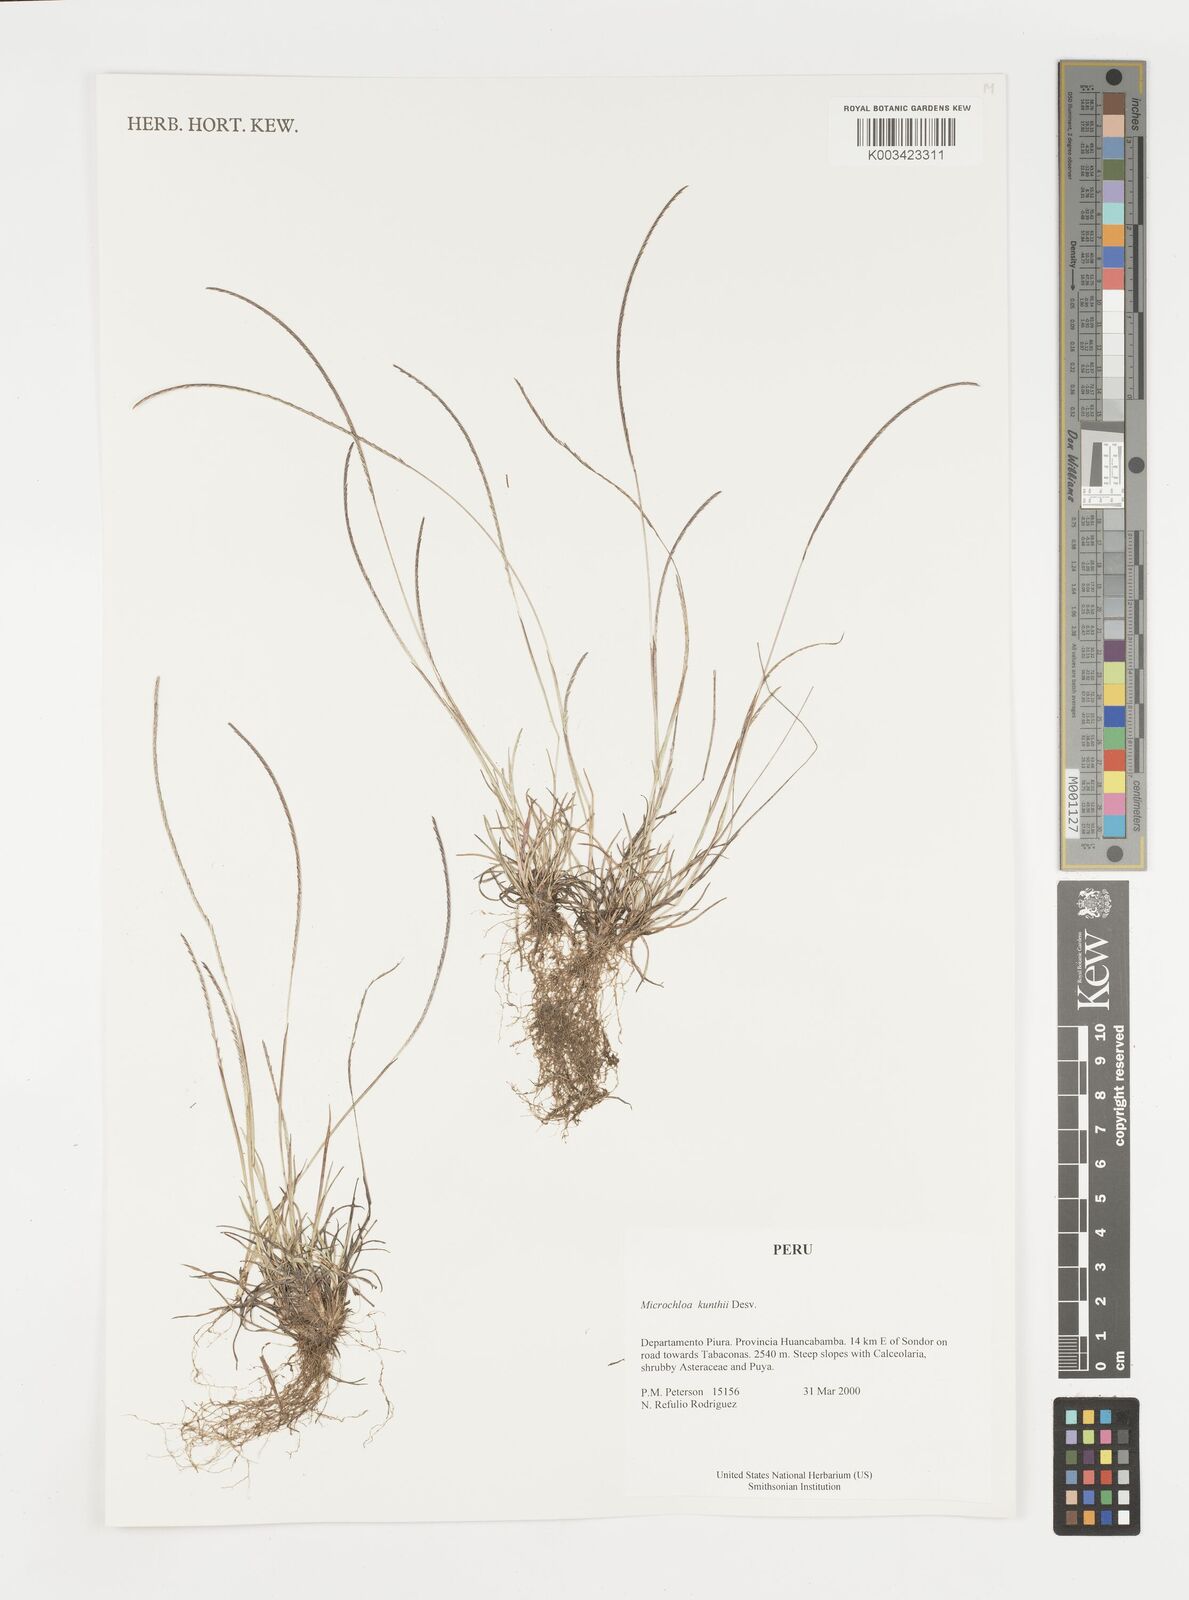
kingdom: Plantae
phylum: Tracheophyta
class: Liliopsida
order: Poales
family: Poaceae
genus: Microchloa
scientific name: Microchloa indica
